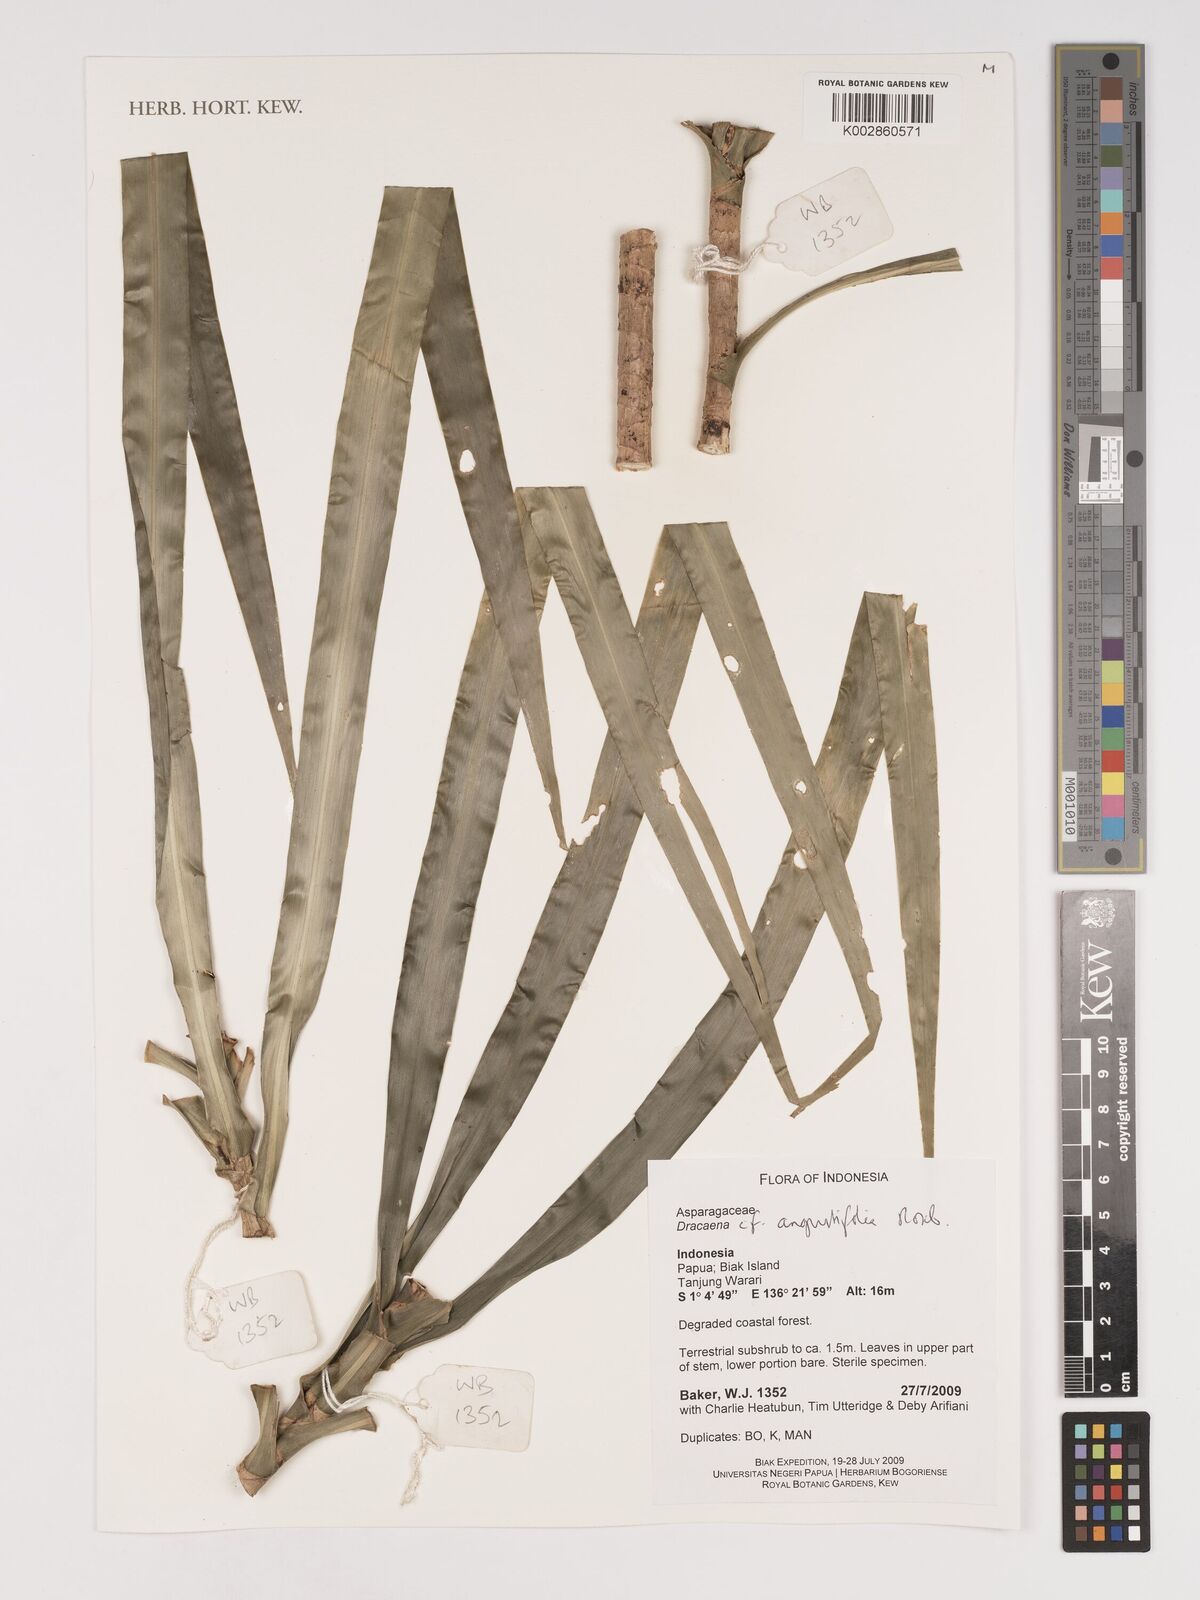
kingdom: Plantae
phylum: Tracheophyta
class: Liliopsida
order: Asparagales
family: Asparagaceae
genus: Dracaena
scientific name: Dracaena angustifolia
